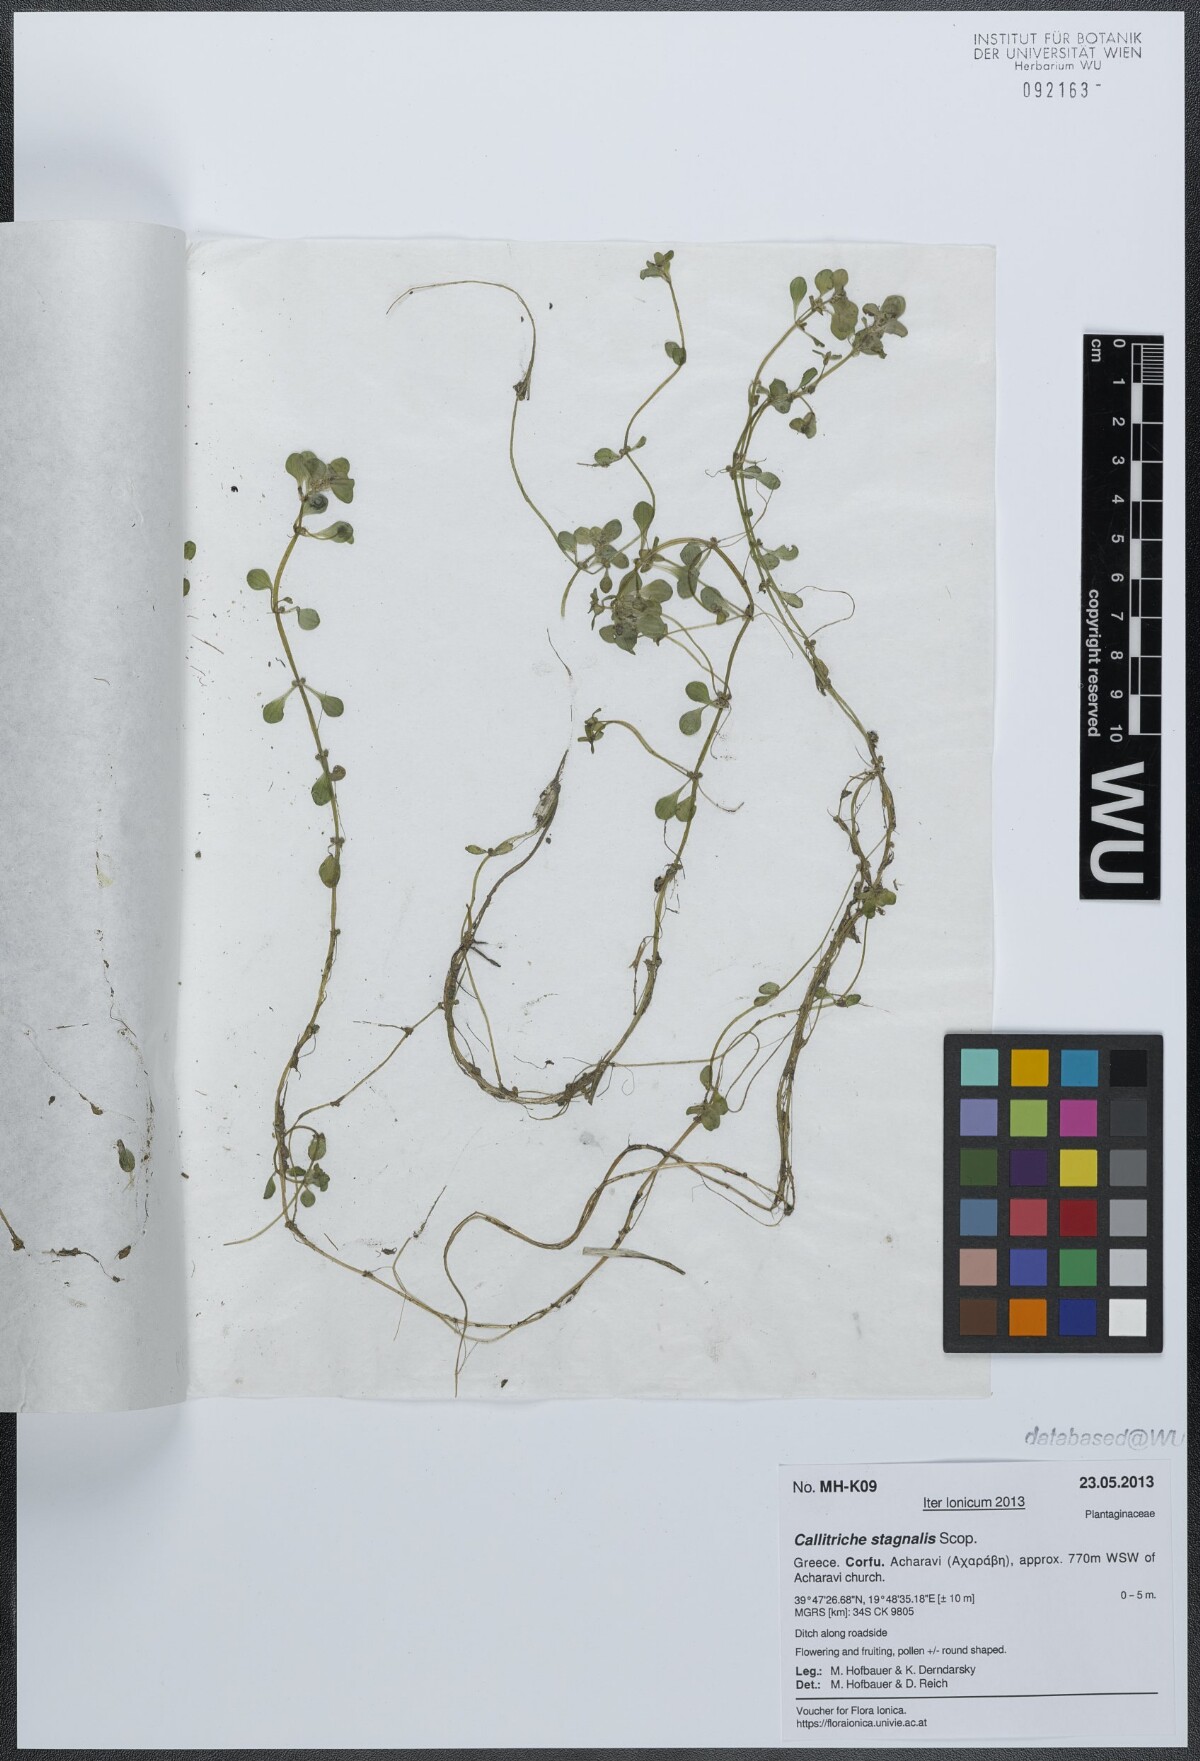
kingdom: Plantae
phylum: Tracheophyta
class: Magnoliopsida
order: Lamiales
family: Plantaginaceae
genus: Callitriche
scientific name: Callitriche stagnalis
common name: Common water-starwort
